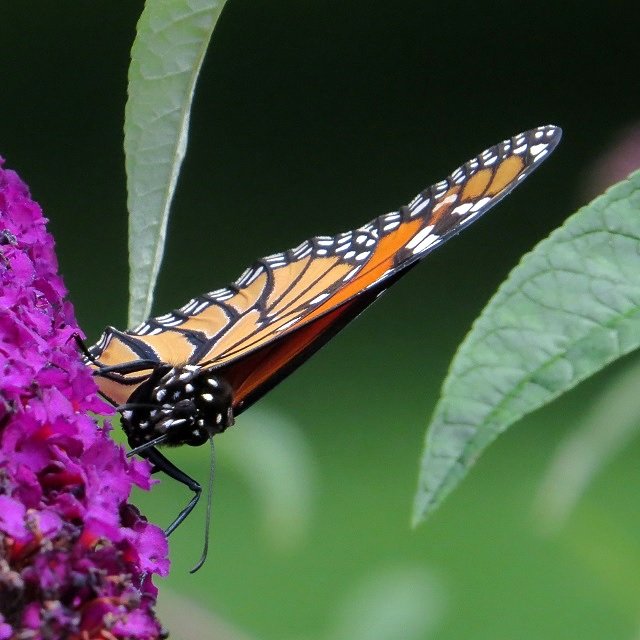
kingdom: Animalia
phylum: Arthropoda
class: Insecta
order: Lepidoptera
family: Nymphalidae
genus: Danaus
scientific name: Danaus plexippus
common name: Monarch
